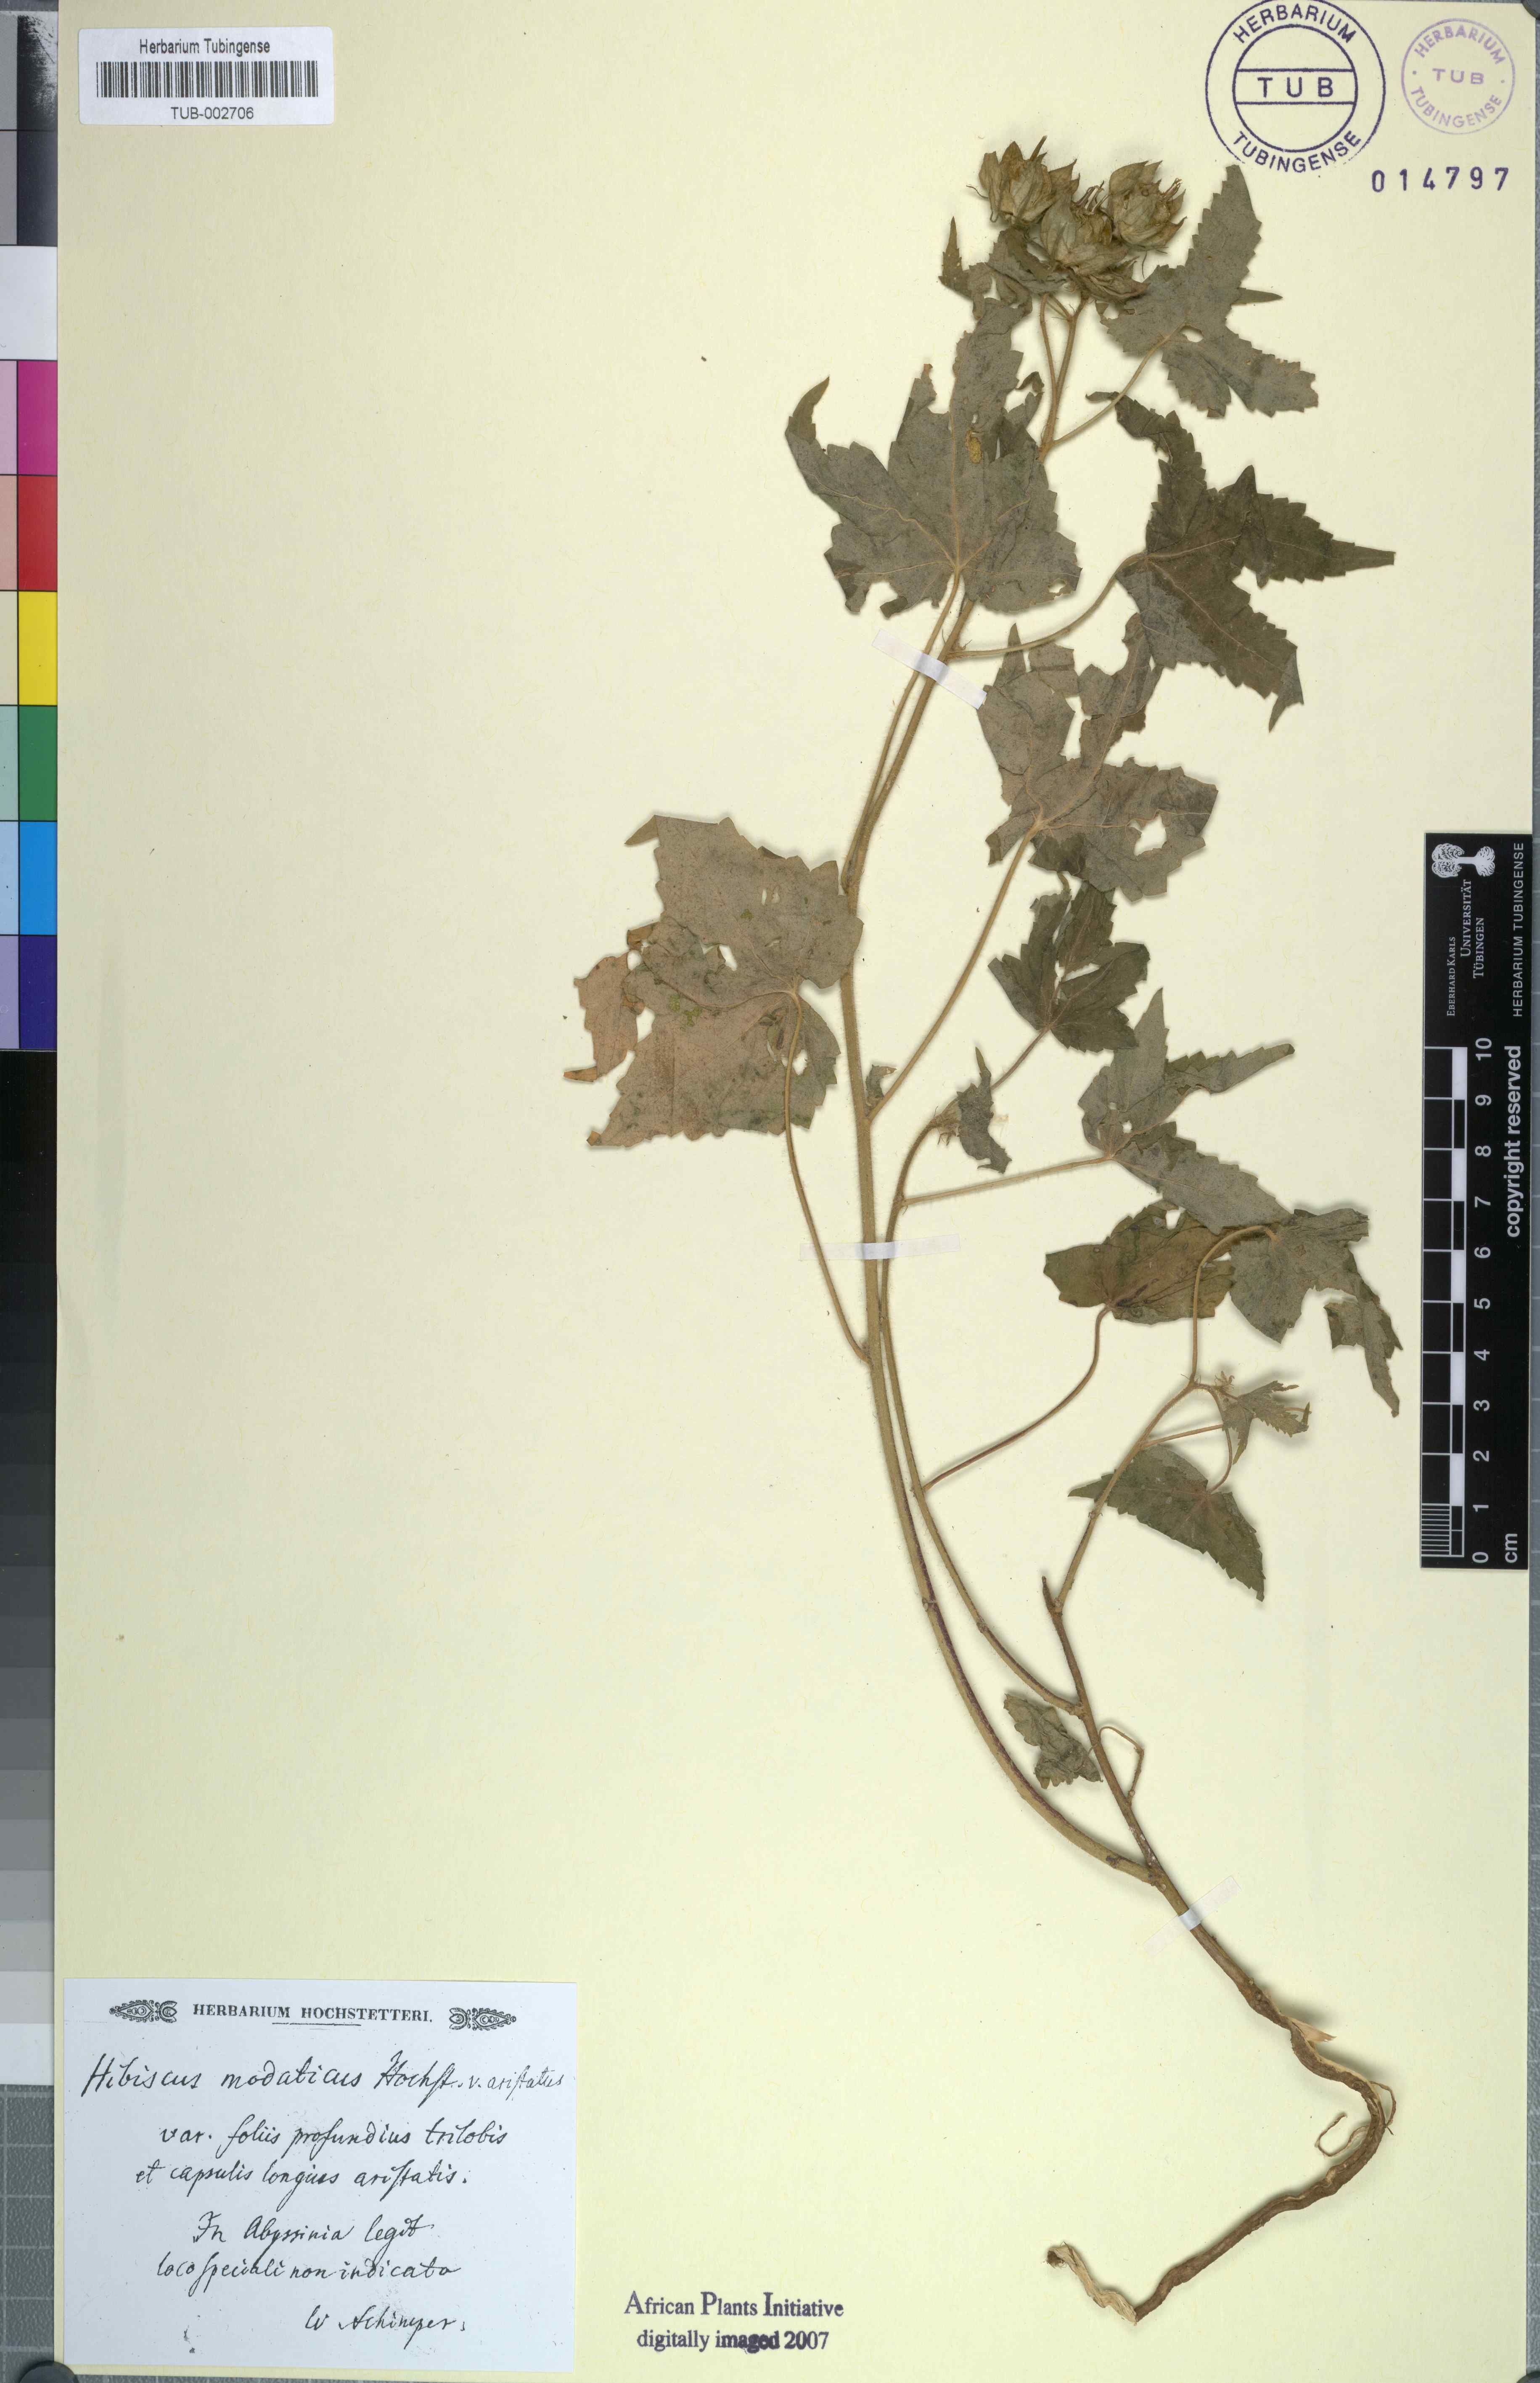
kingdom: Plantae
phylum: Tracheophyta
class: Magnoliopsida
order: Malvales
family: Malvaceae
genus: Hibiscus
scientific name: Hibiscus vitifolius
